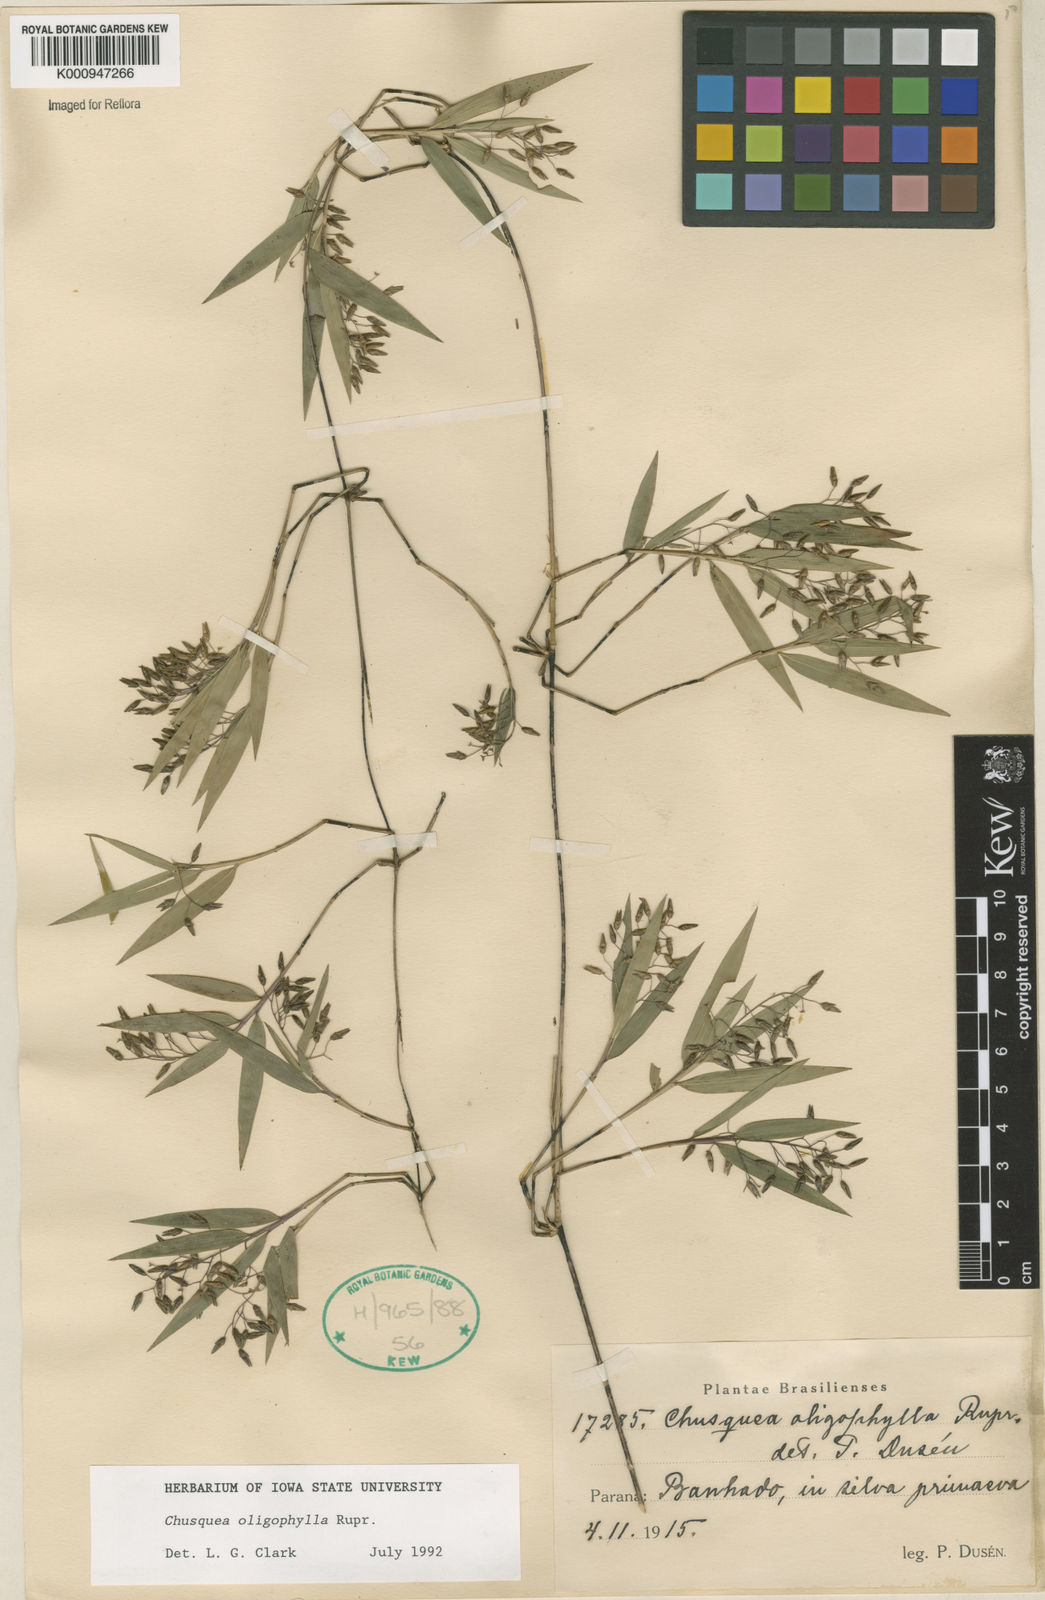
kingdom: Plantae
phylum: Tracheophyta
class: Liliopsida
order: Poales
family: Poaceae
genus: Chusquea
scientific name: Chusquea oligophylla
